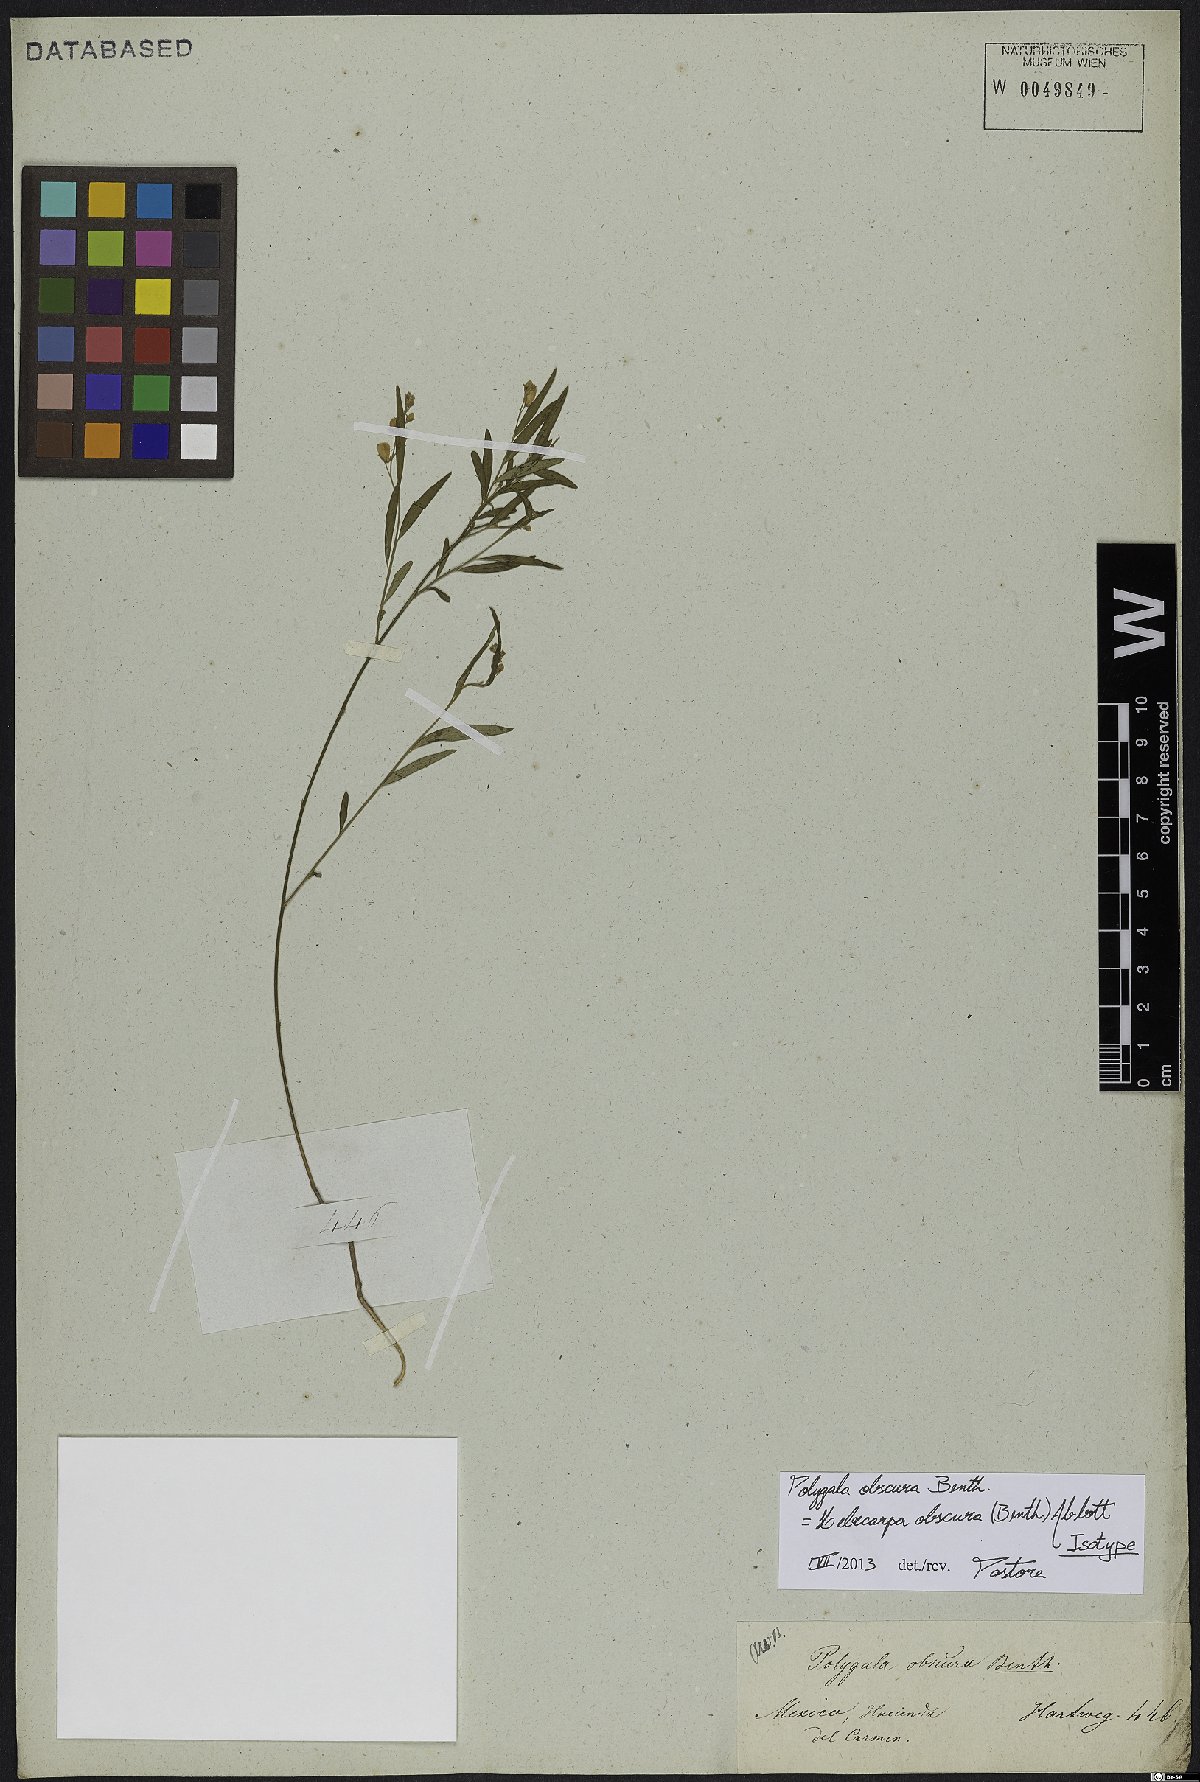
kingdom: Plantae
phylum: Tracheophyta
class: Magnoliopsida
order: Fabales
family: Polygalaceae
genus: Hebecarpa
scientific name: Hebecarpa obscura
